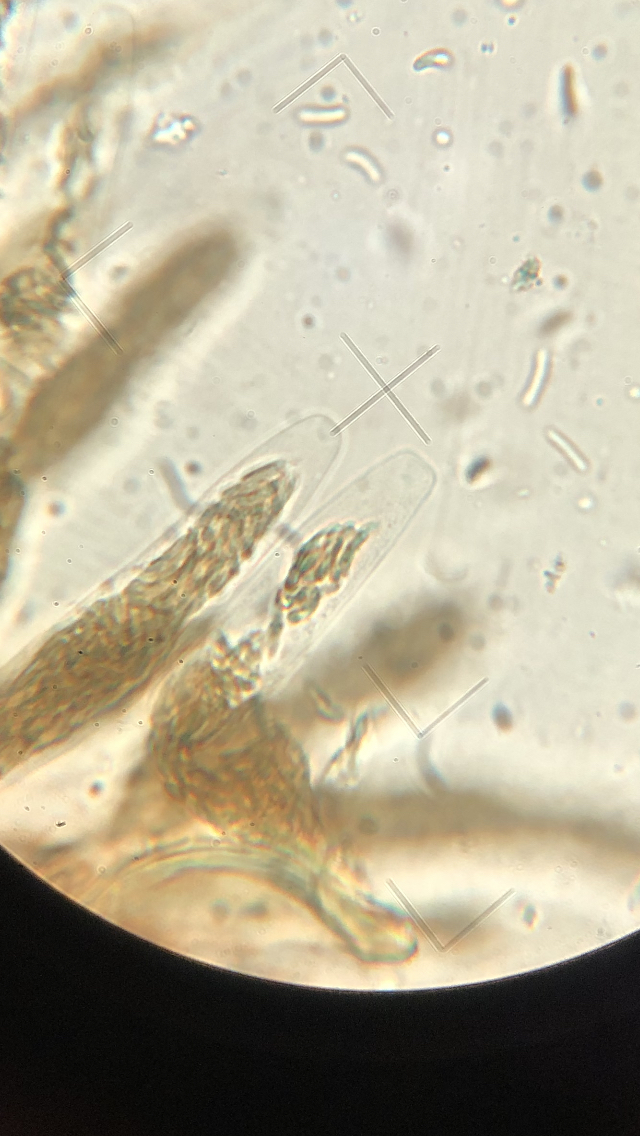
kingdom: Fungi
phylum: Ascomycota
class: Sordariomycetes
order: Xylariales
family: Diatrypaceae
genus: Diatrypella
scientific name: Diatrypella favacea
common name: klemt kulskorpe
